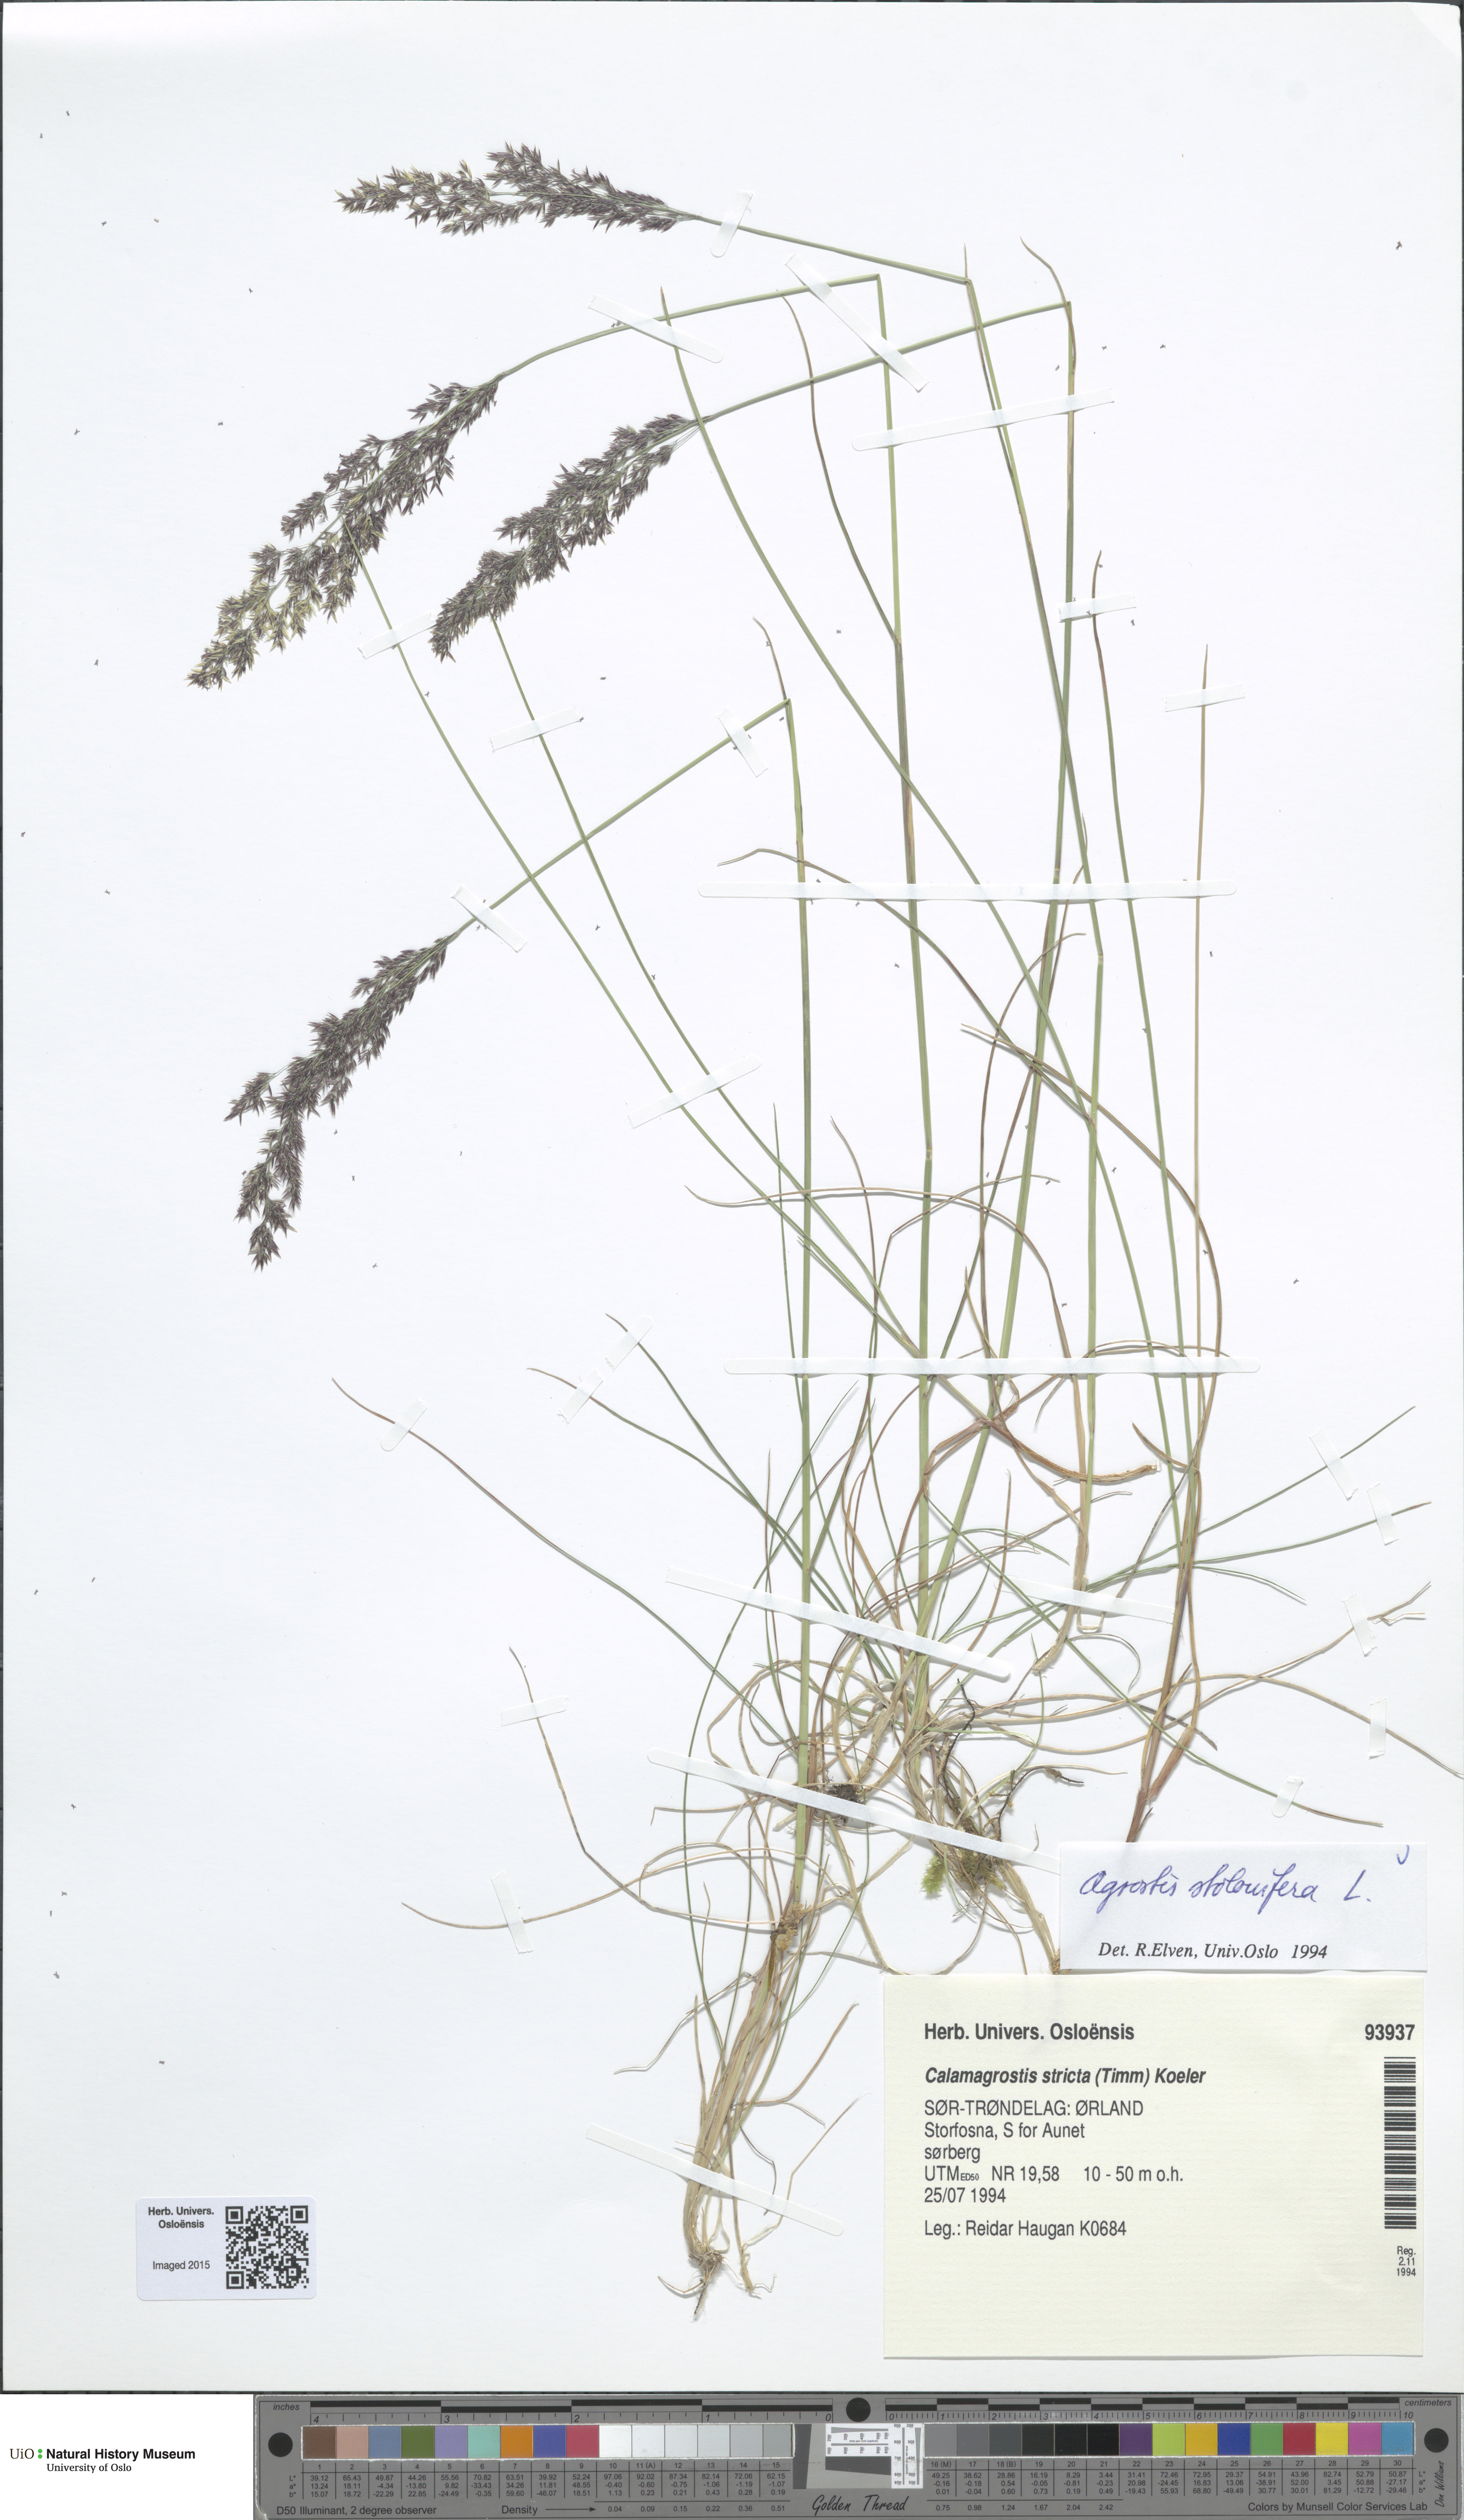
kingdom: Plantae
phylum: Tracheophyta
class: Liliopsida
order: Poales
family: Poaceae
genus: Agrostis
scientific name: Agrostis stolonifera
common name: Creeping bentgrass
